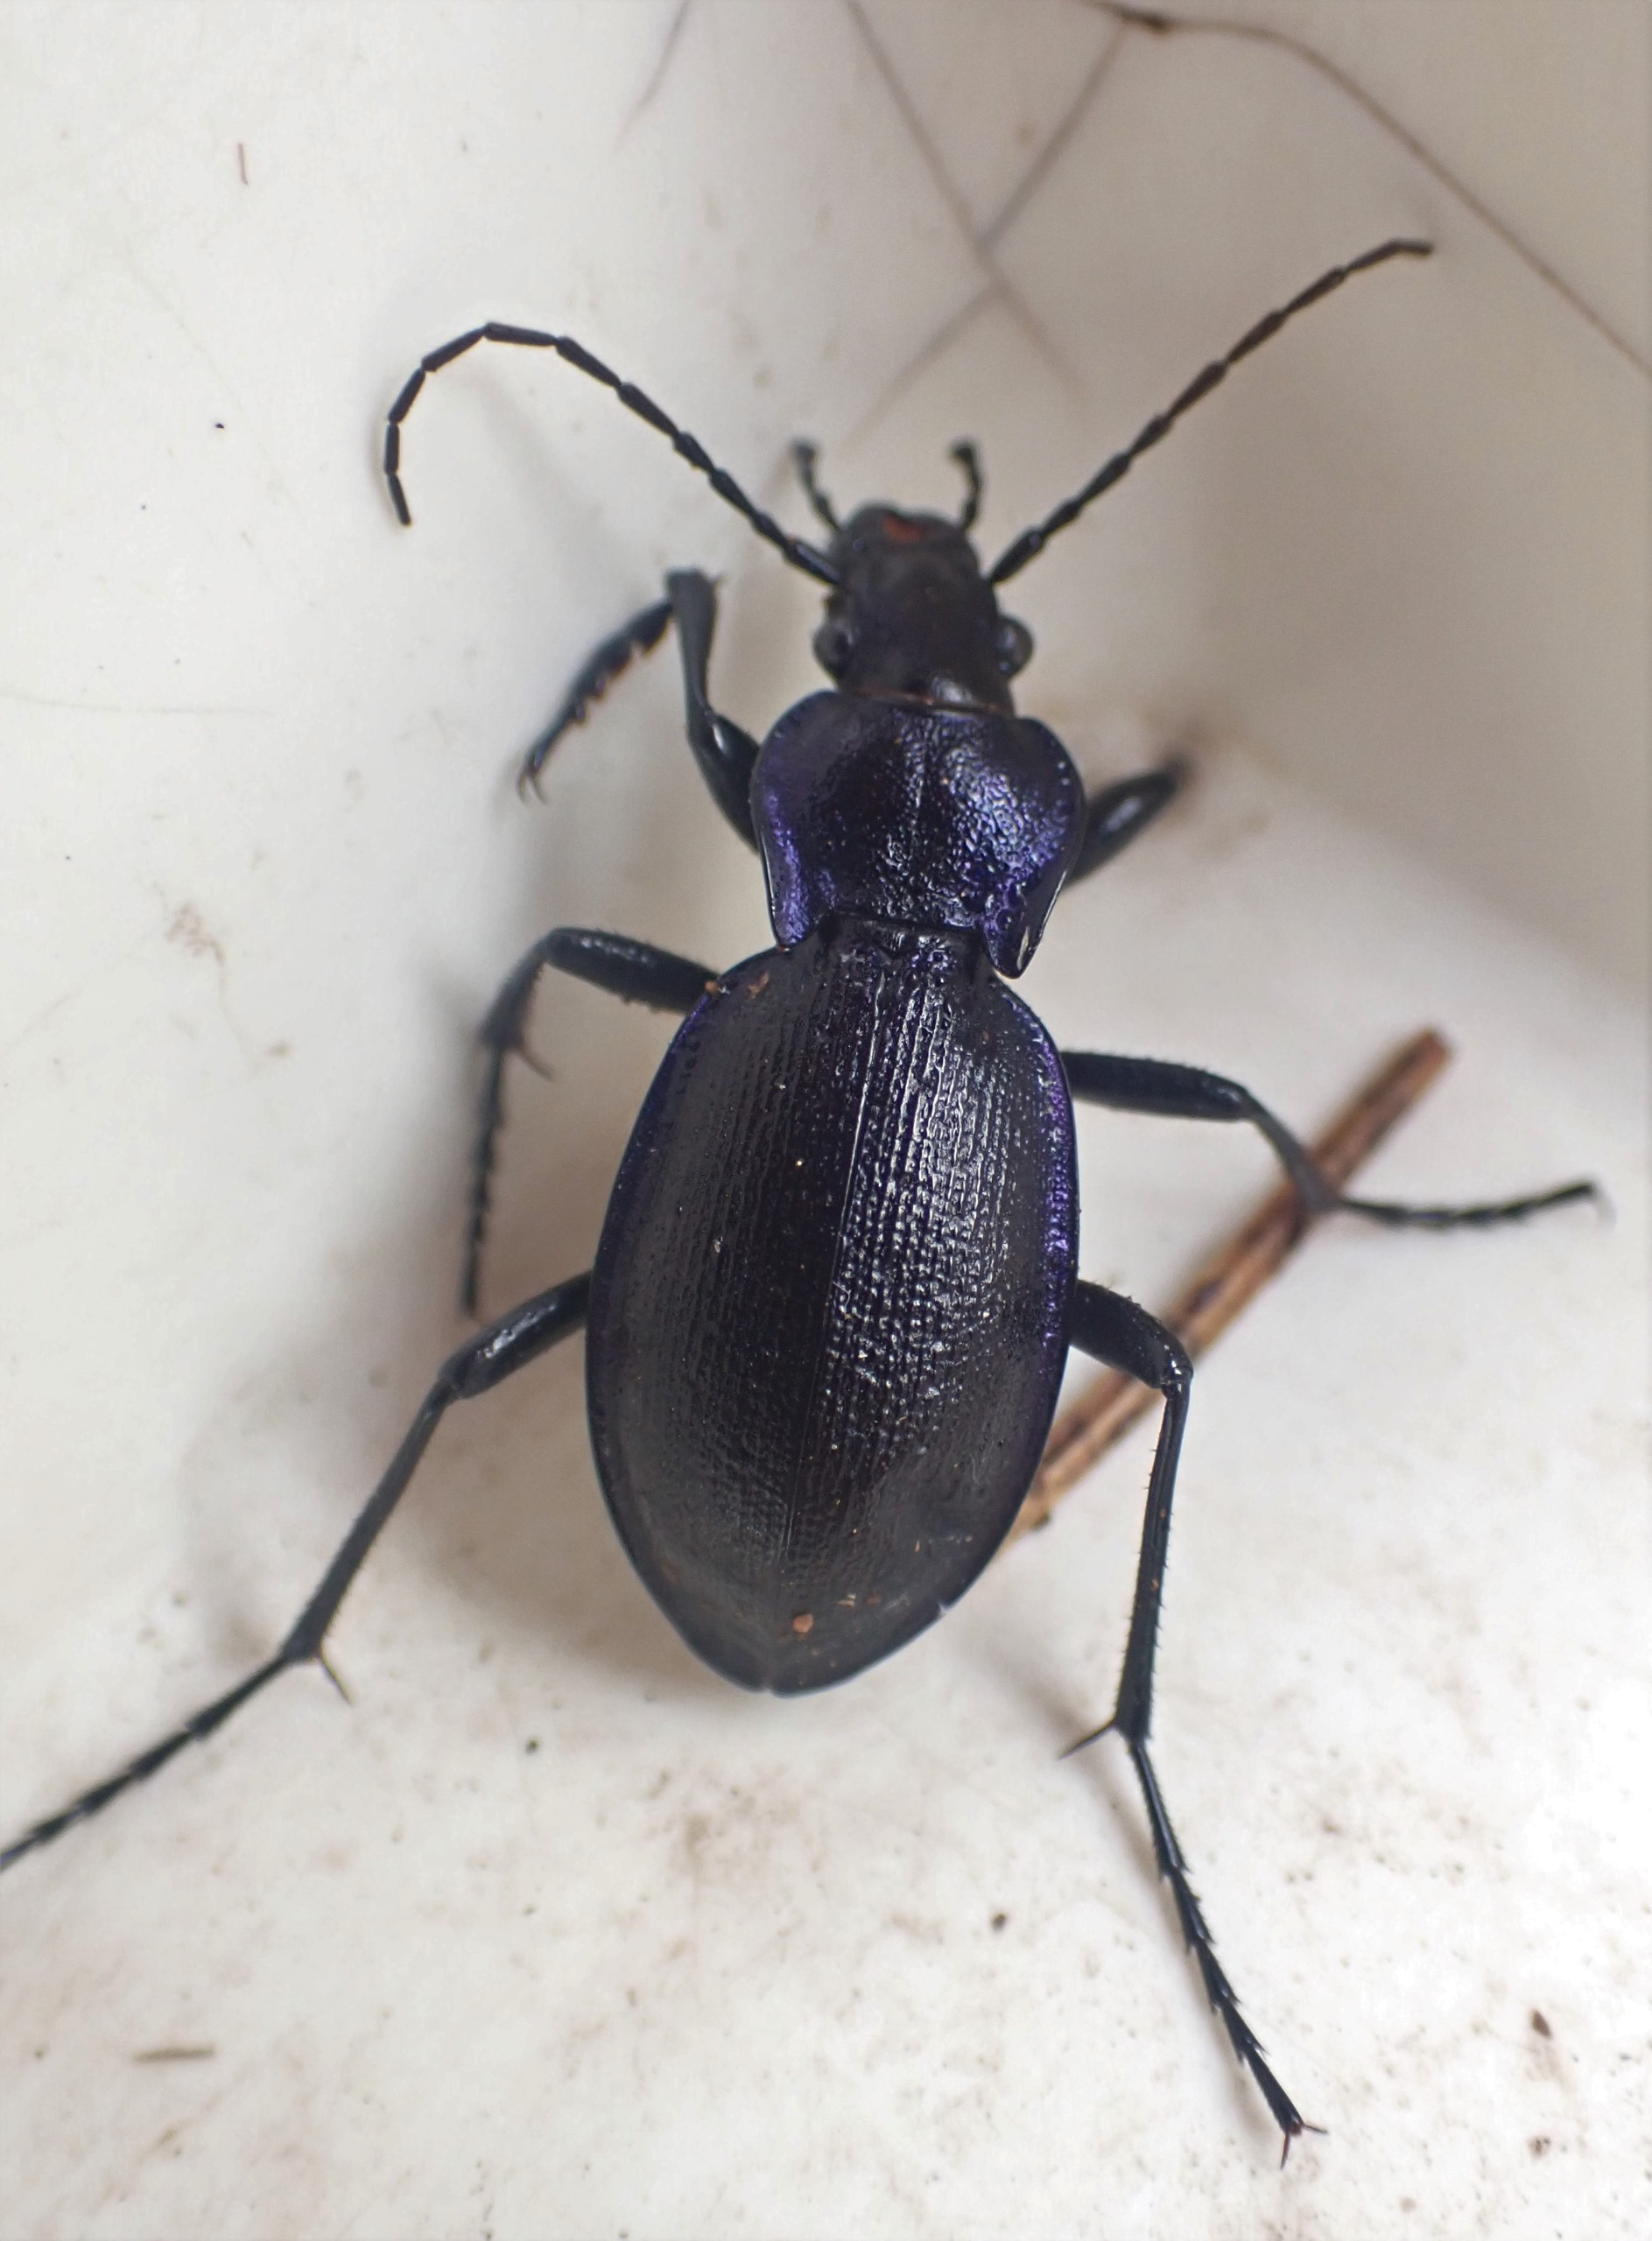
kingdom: Animalia
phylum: Arthropoda
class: Insecta
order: Coleoptera
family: Carabidae
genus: Carabus
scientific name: Carabus problematicus
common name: Jysk løber
